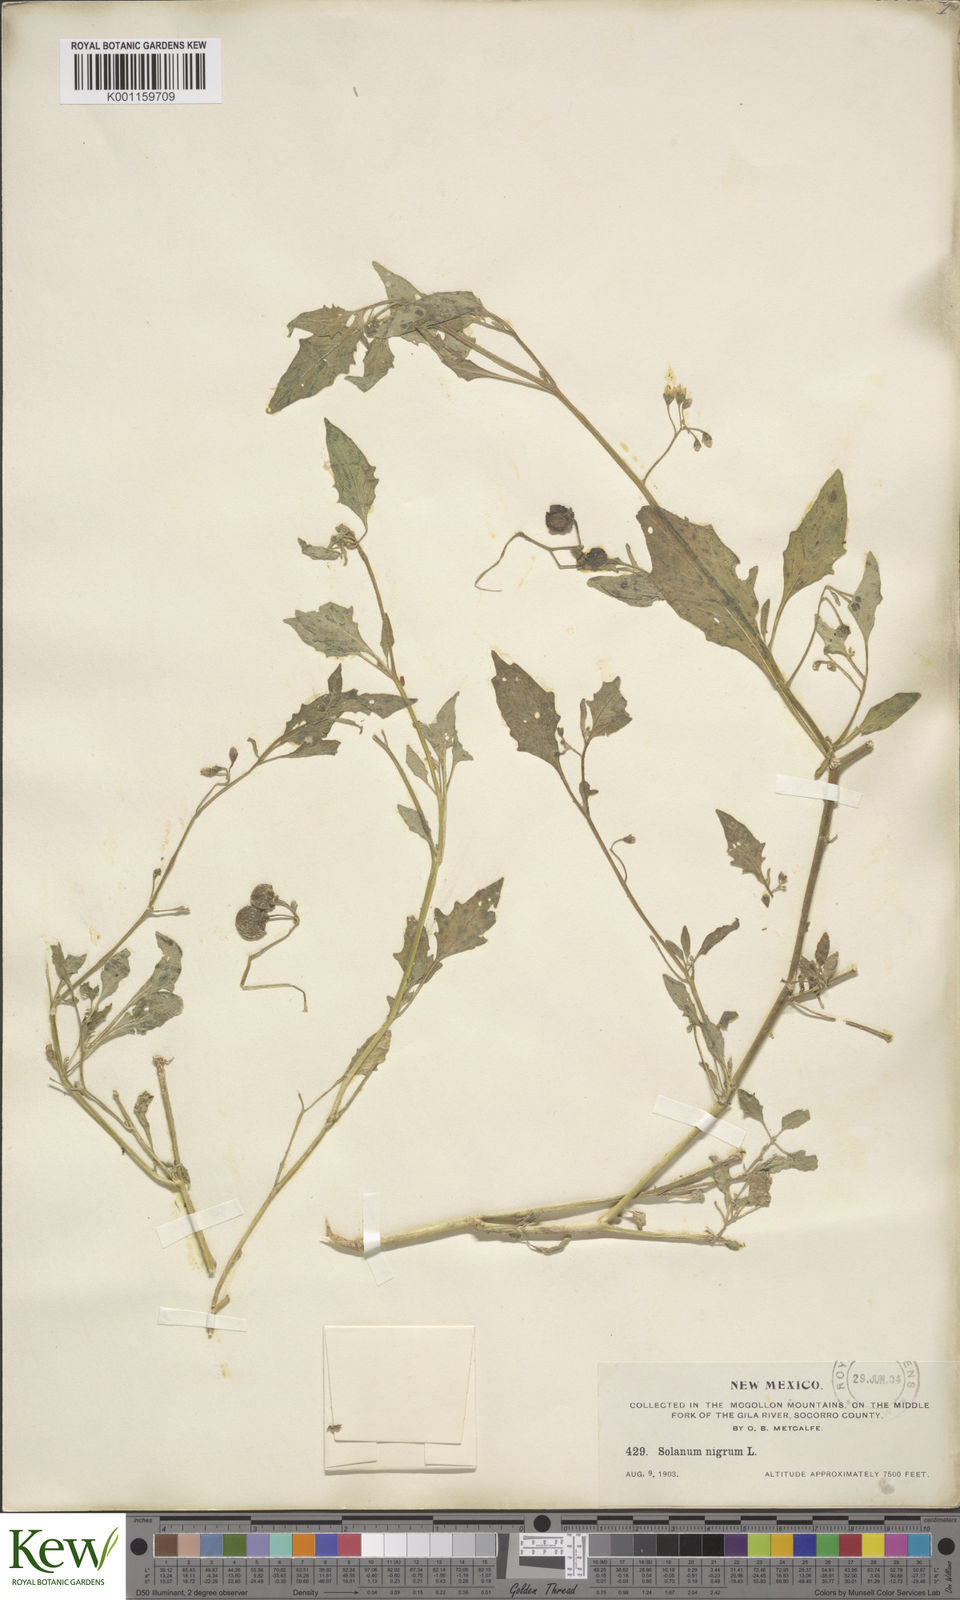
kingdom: Plantae
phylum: Tracheophyta
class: Magnoliopsida
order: Solanales
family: Solanaceae
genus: Solanum
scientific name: Solanum interius
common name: Plains black nightshade
